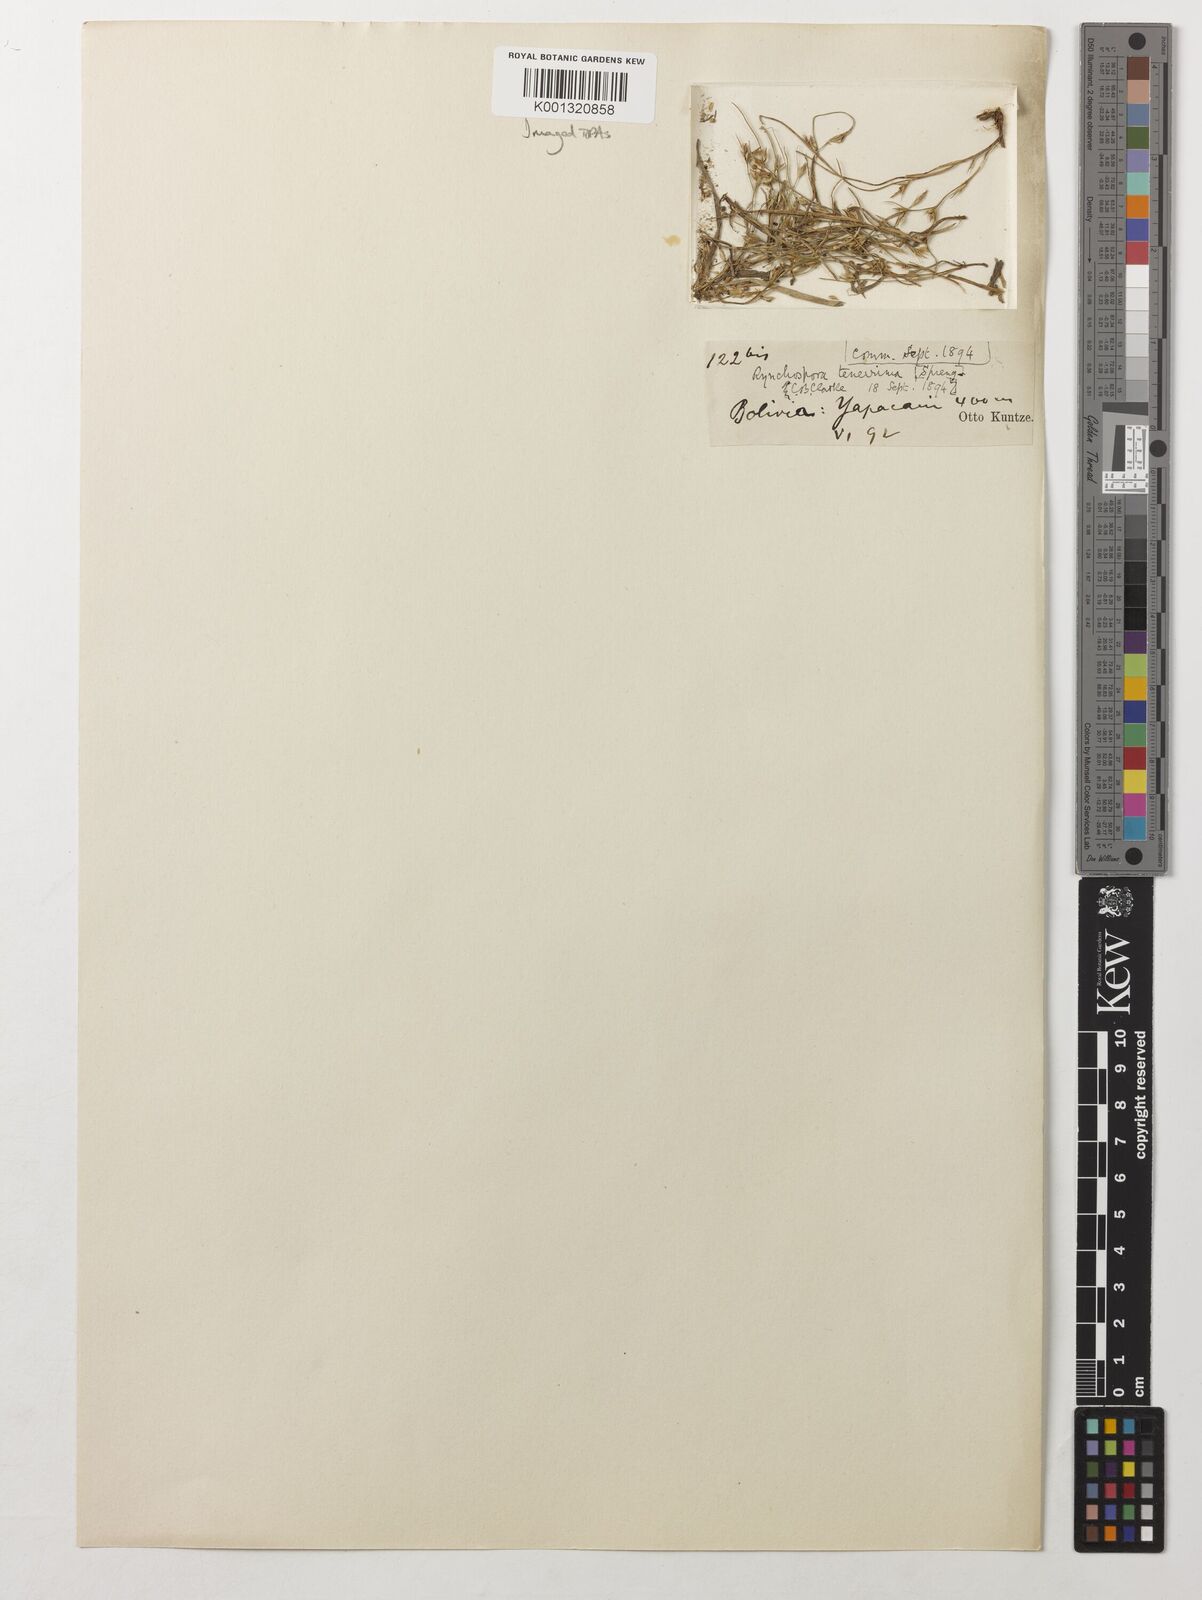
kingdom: Plantae
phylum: Tracheophyta
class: Liliopsida
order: Poales
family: Cyperaceae
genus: Rhynchospora
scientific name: Rhynchospora tenerrima
